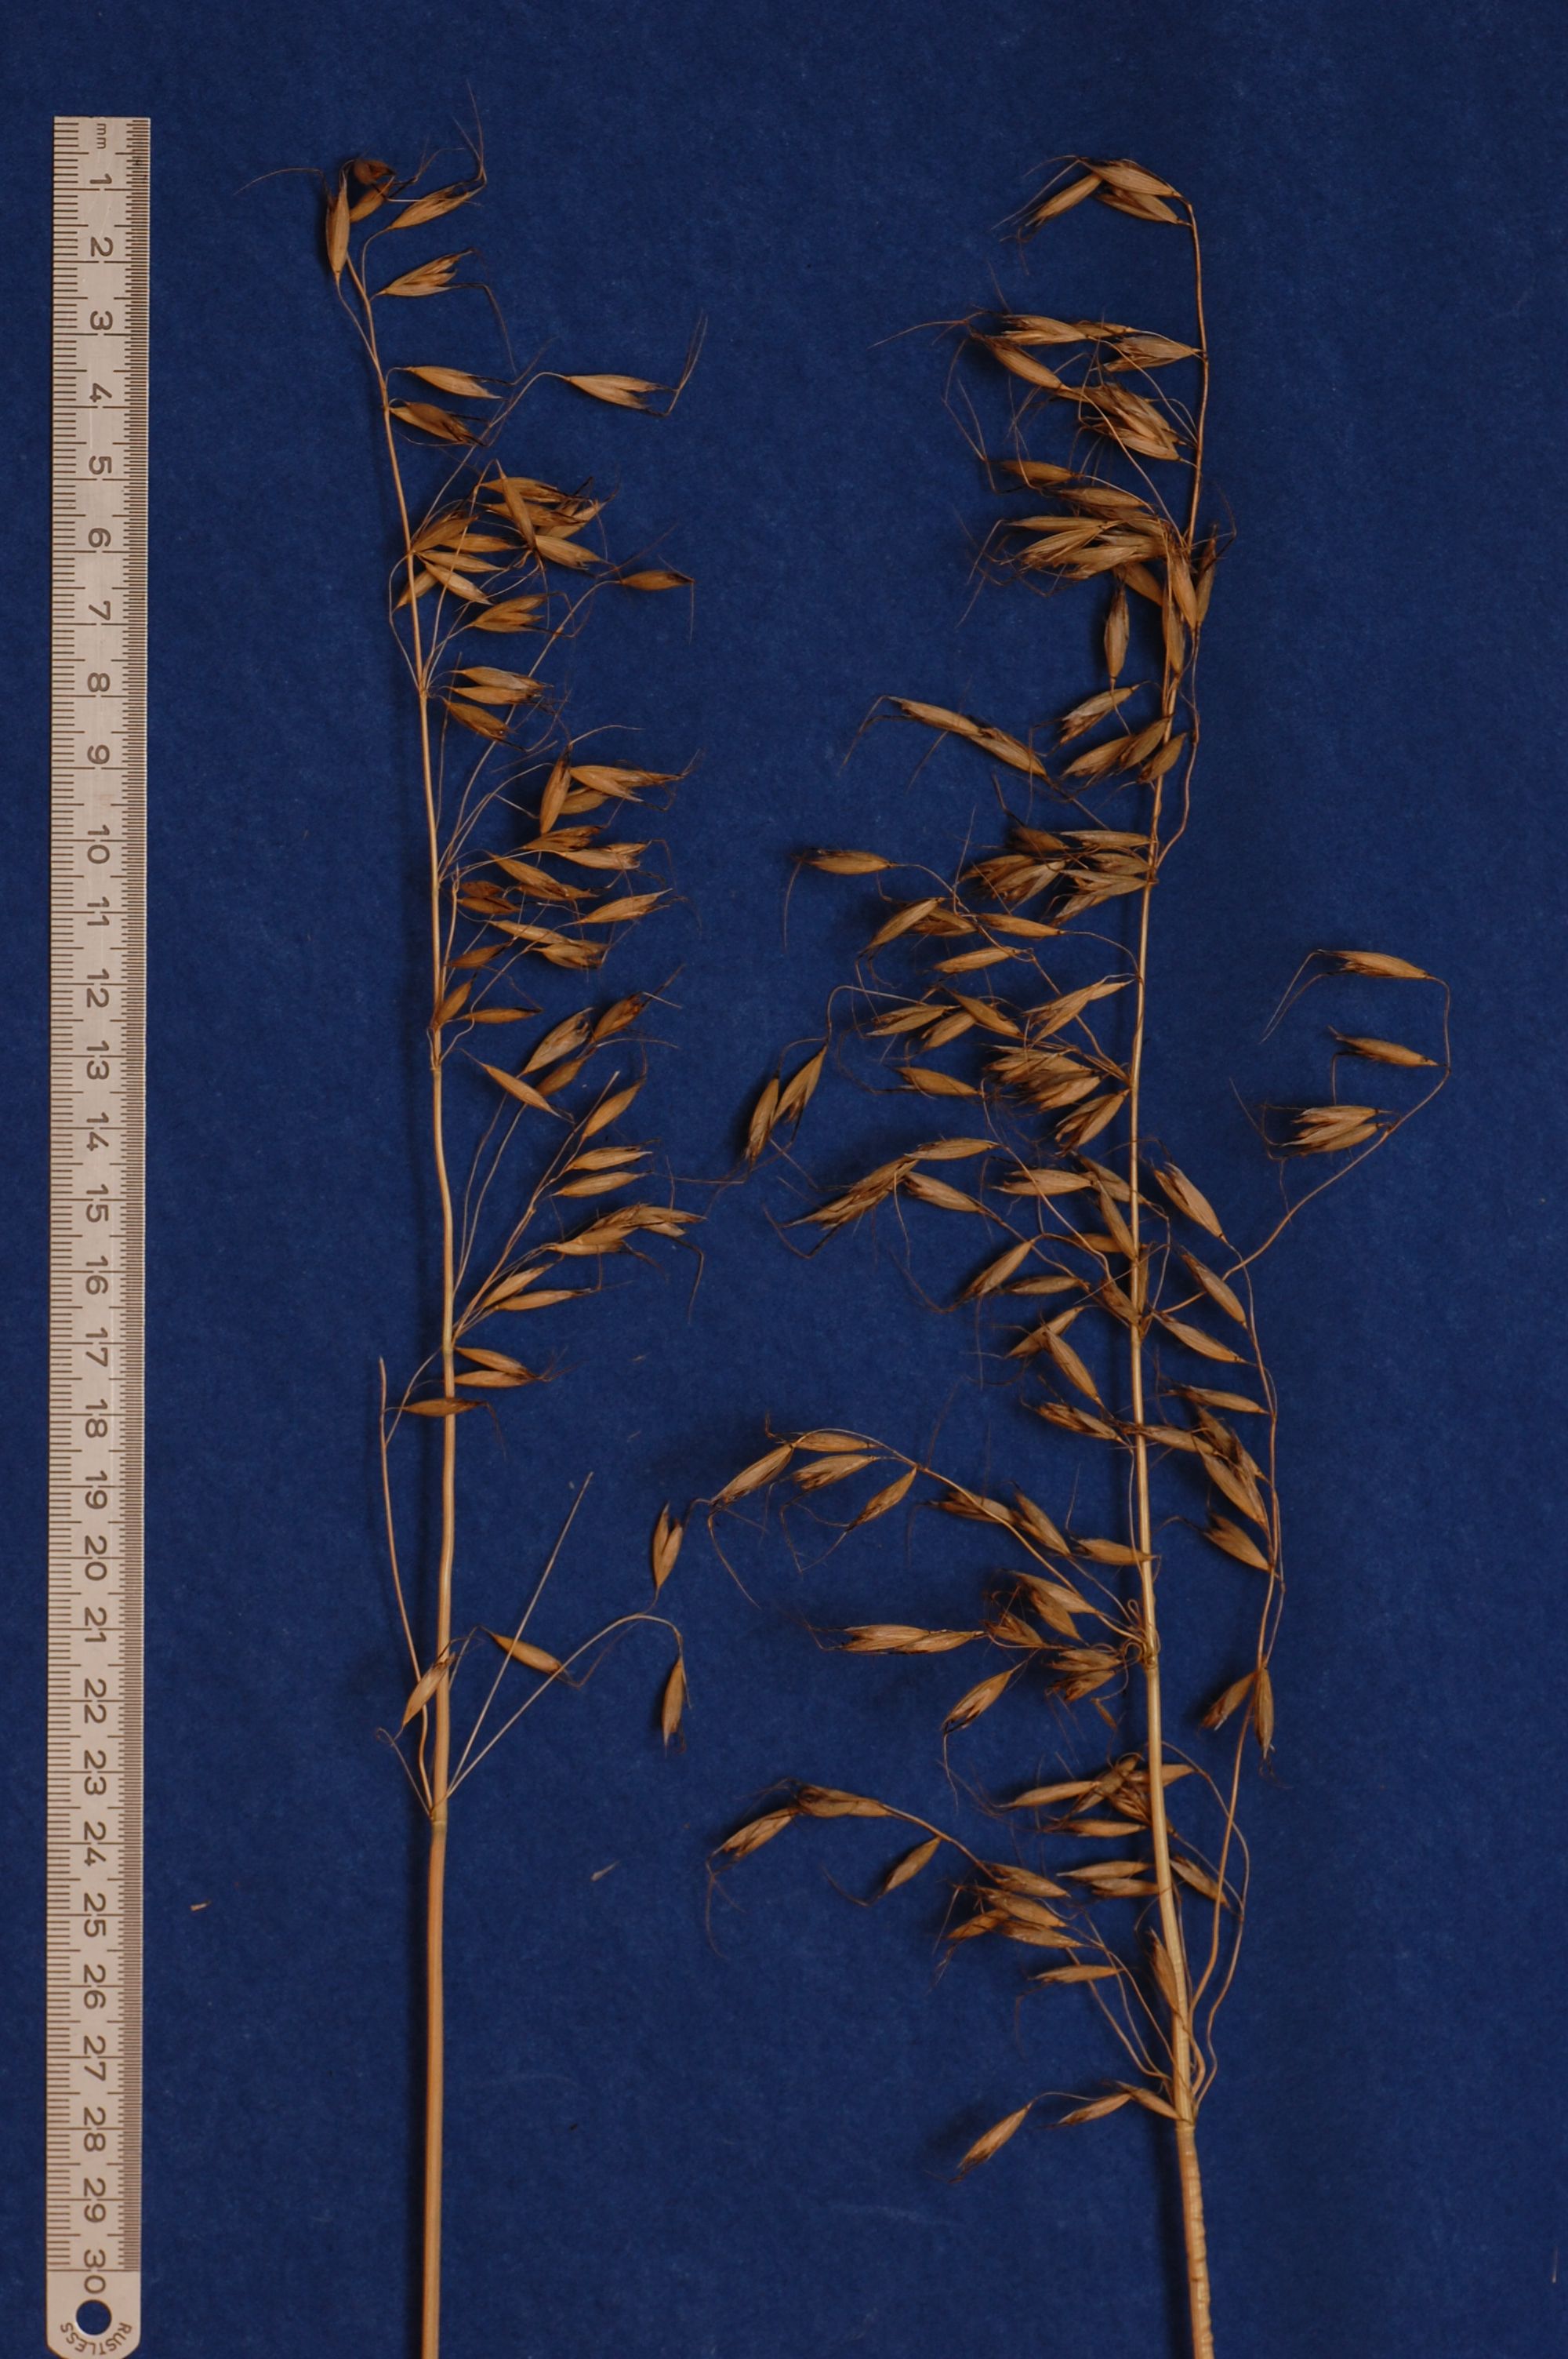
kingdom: Plantae
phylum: Tracheophyta
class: Liliopsida
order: Poales
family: Poaceae
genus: Avena
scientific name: Avena brevis
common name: Short oat
